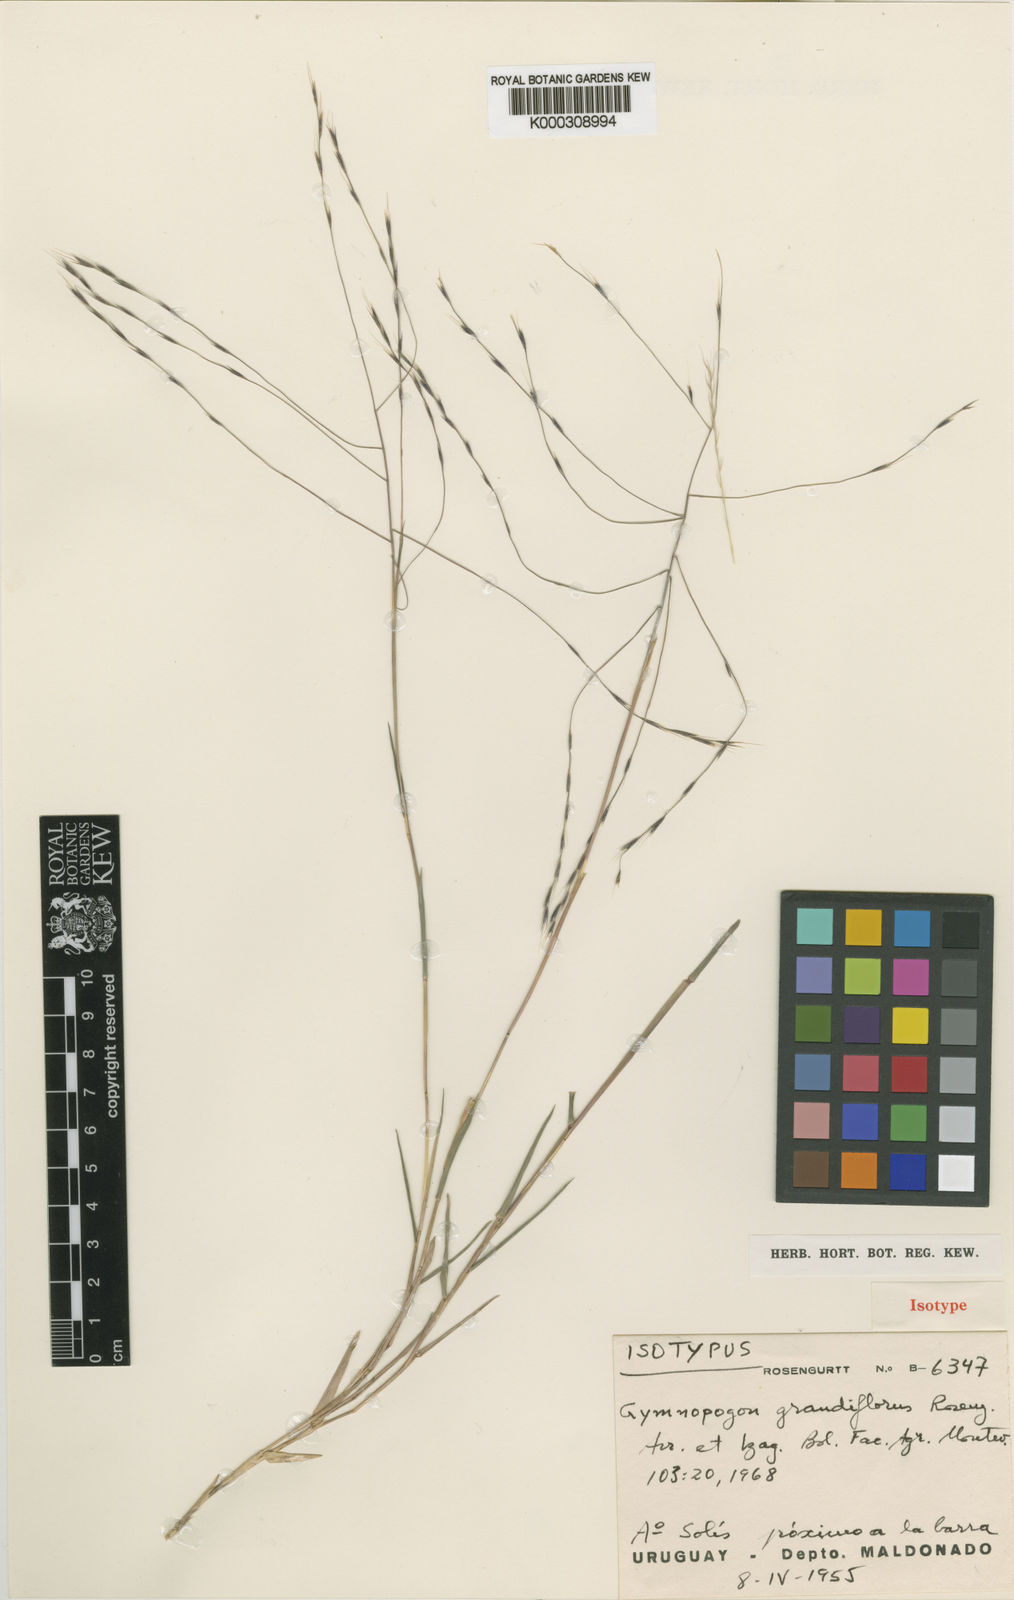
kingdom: Plantae
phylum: Tracheophyta
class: Liliopsida
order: Poales
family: Poaceae
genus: Gymnopogon
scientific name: Gymnopogon
